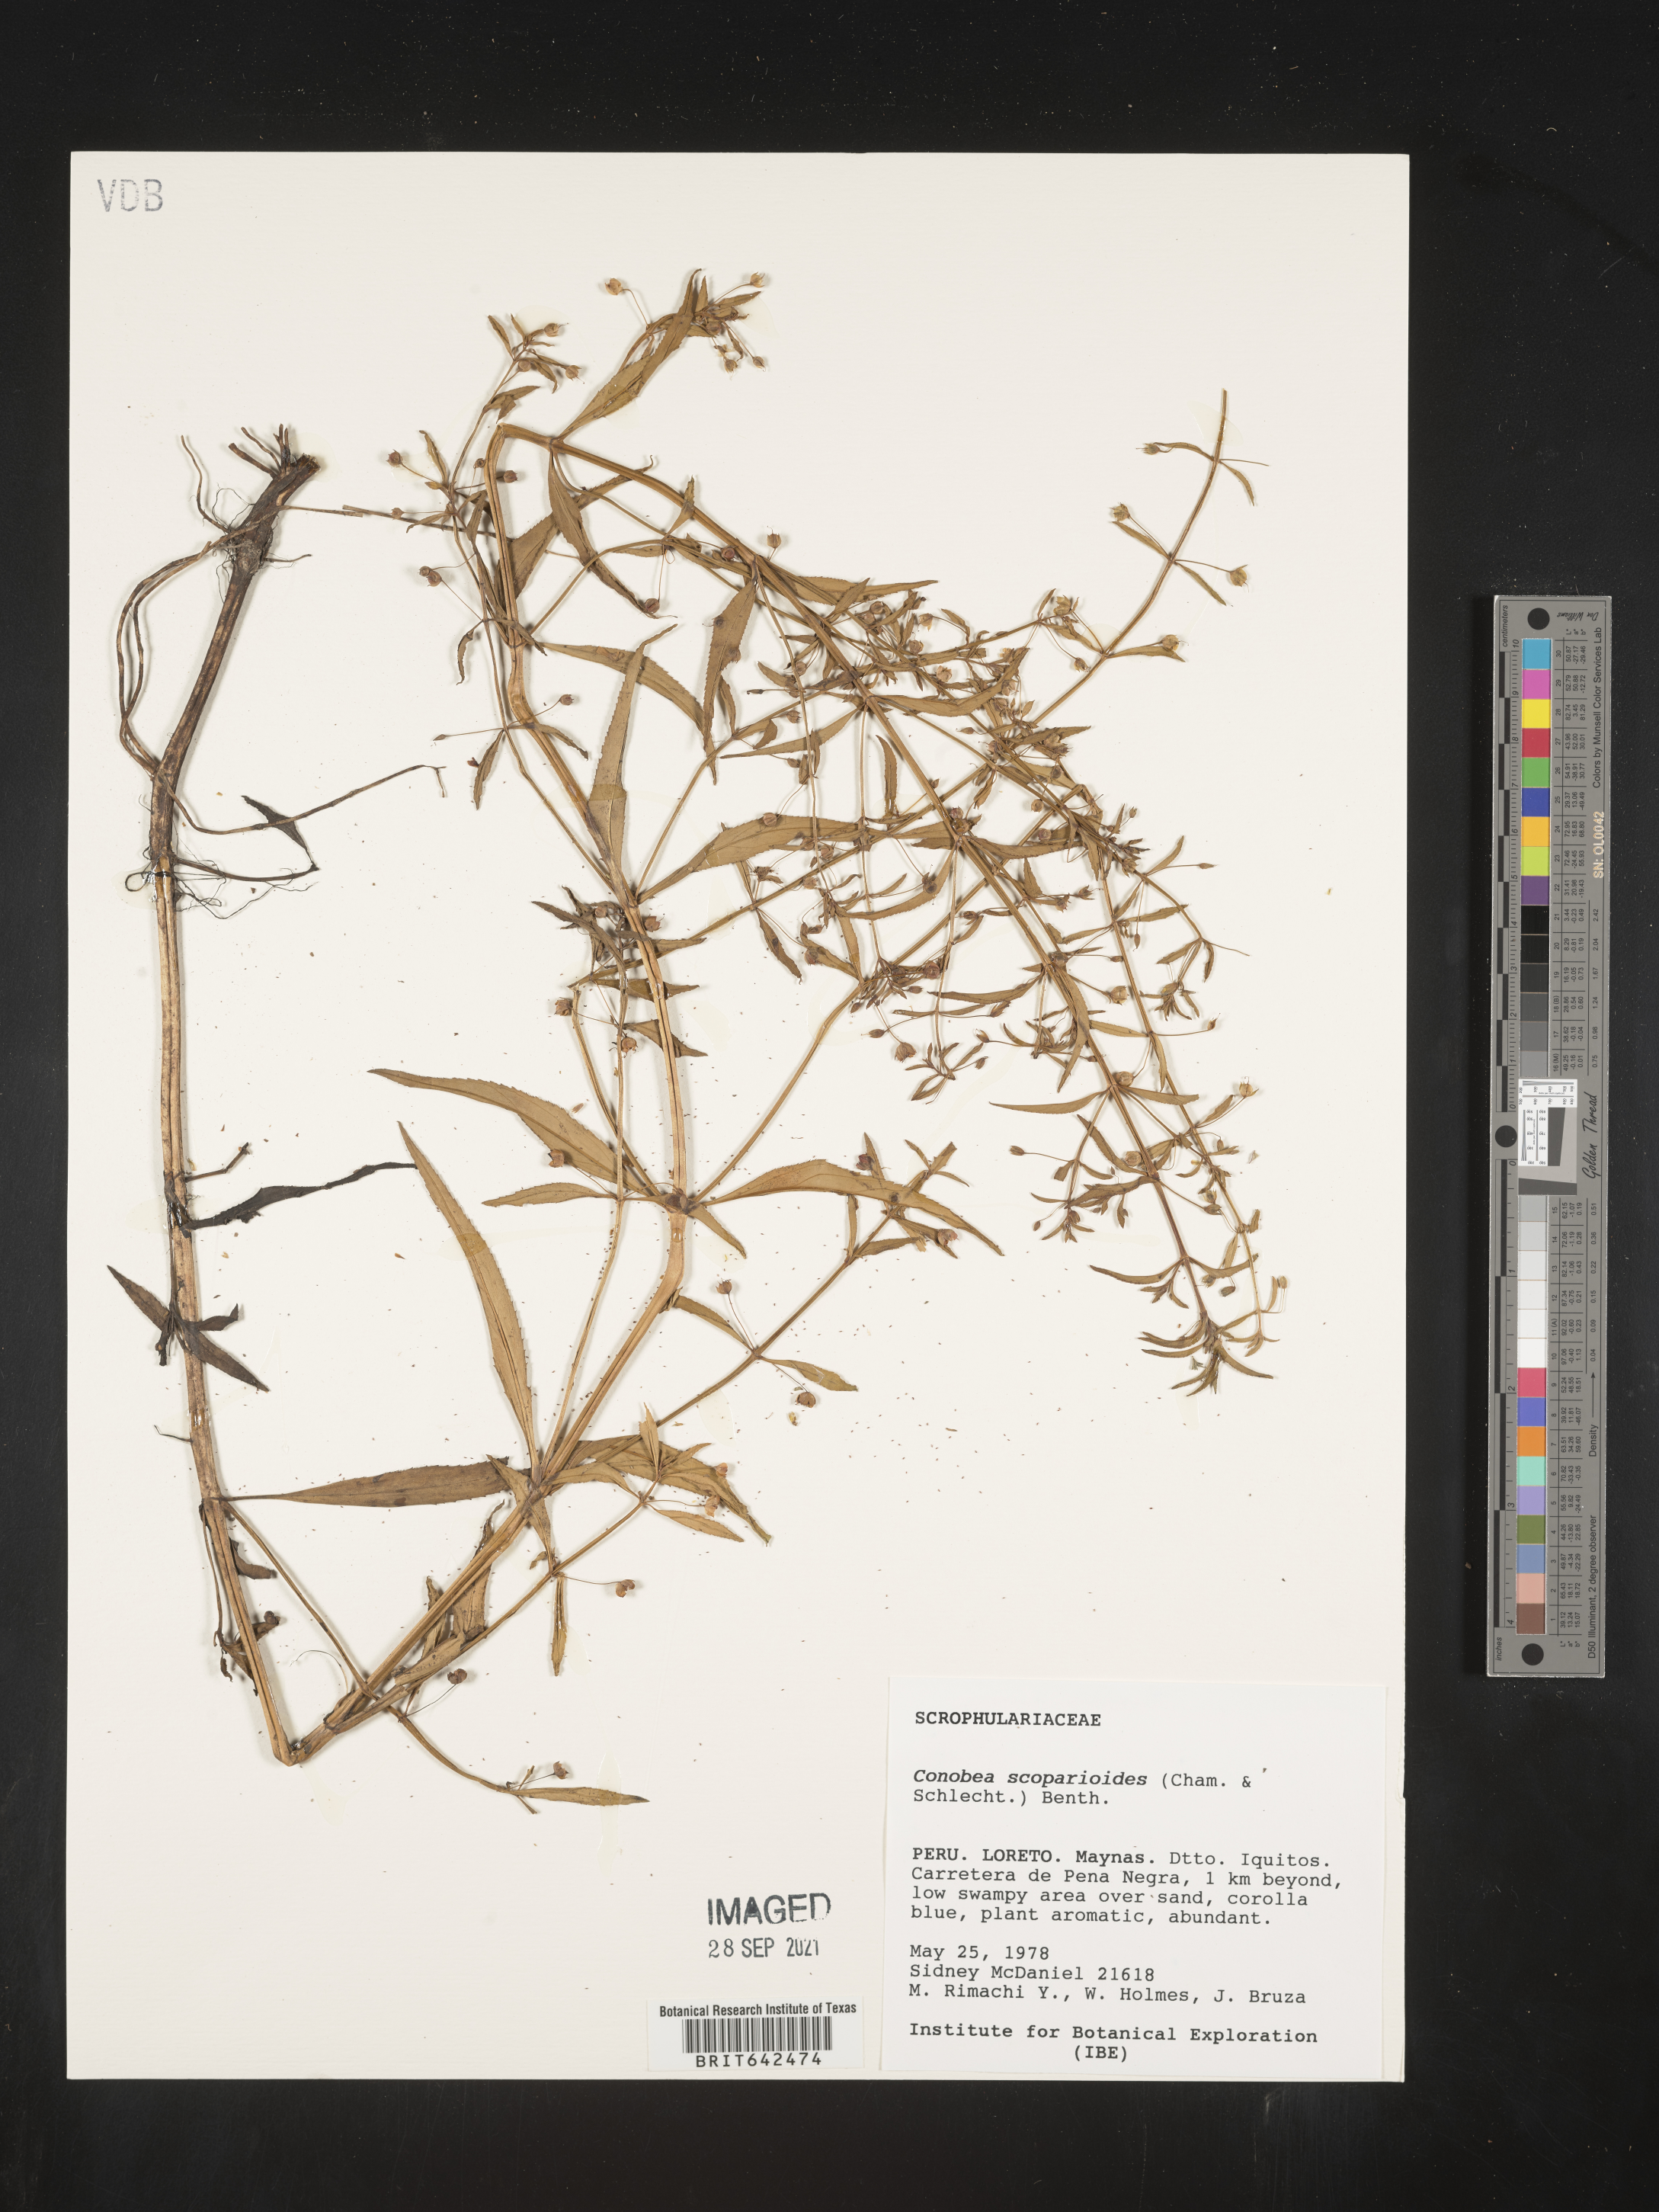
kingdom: Plantae
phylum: Tracheophyta
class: Magnoliopsida
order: Lamiales
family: Plantaginaceae
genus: Conobea
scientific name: Conobea
